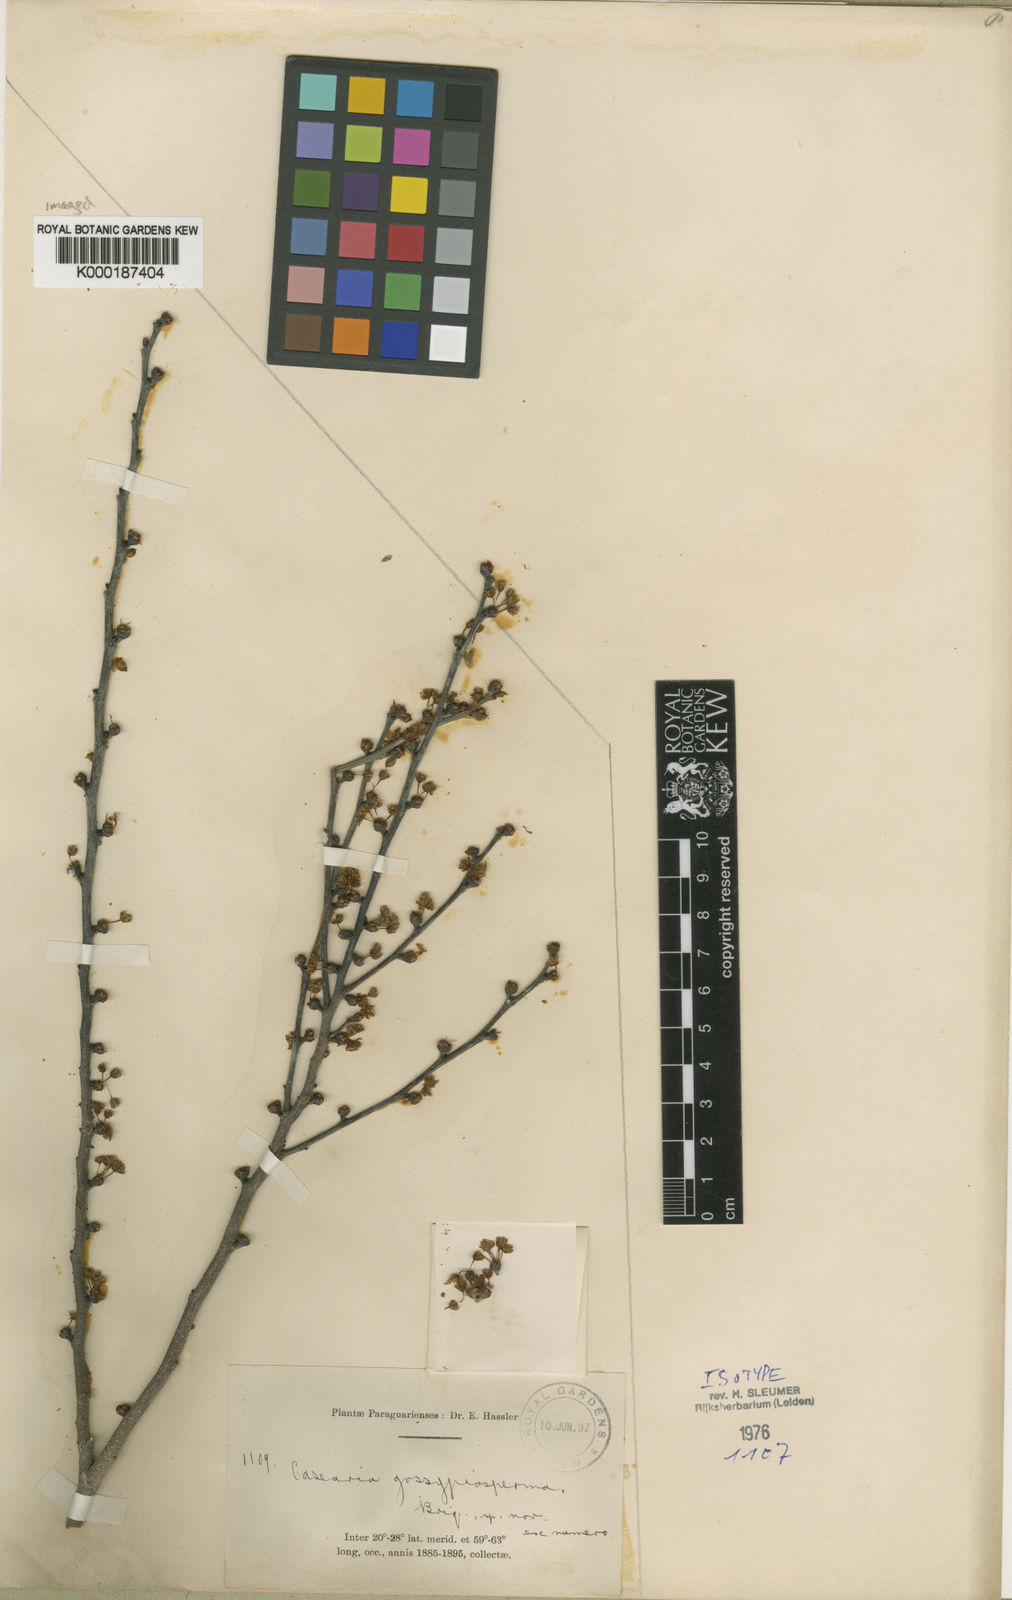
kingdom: Plantae
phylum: Tracheophyta
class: Magnoliopsida
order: Malpighiales
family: Salicaceae
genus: Casearia
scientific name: Casearia gossypiosperma
